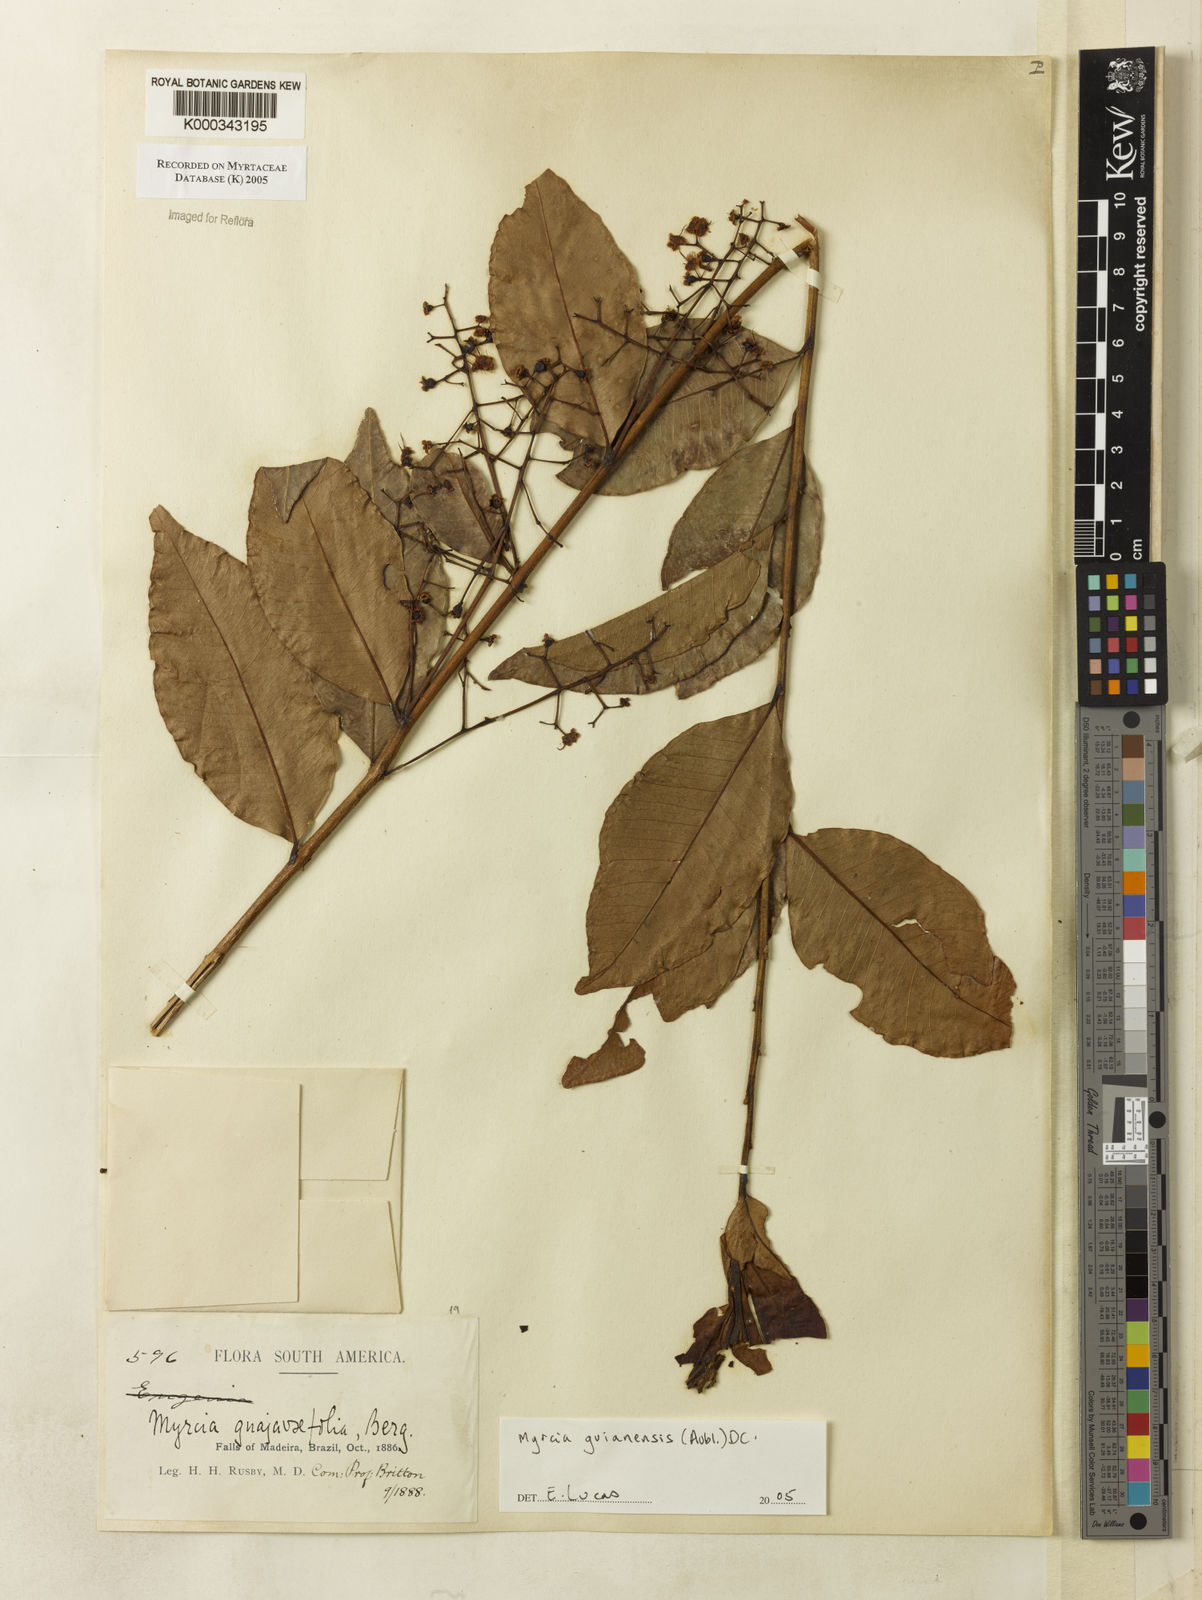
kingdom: Plantae
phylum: Tracheophyta
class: Magnoliopsida
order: Myrtales
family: Myrtaceae
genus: Myrcia
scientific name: Myrcia guianensis
